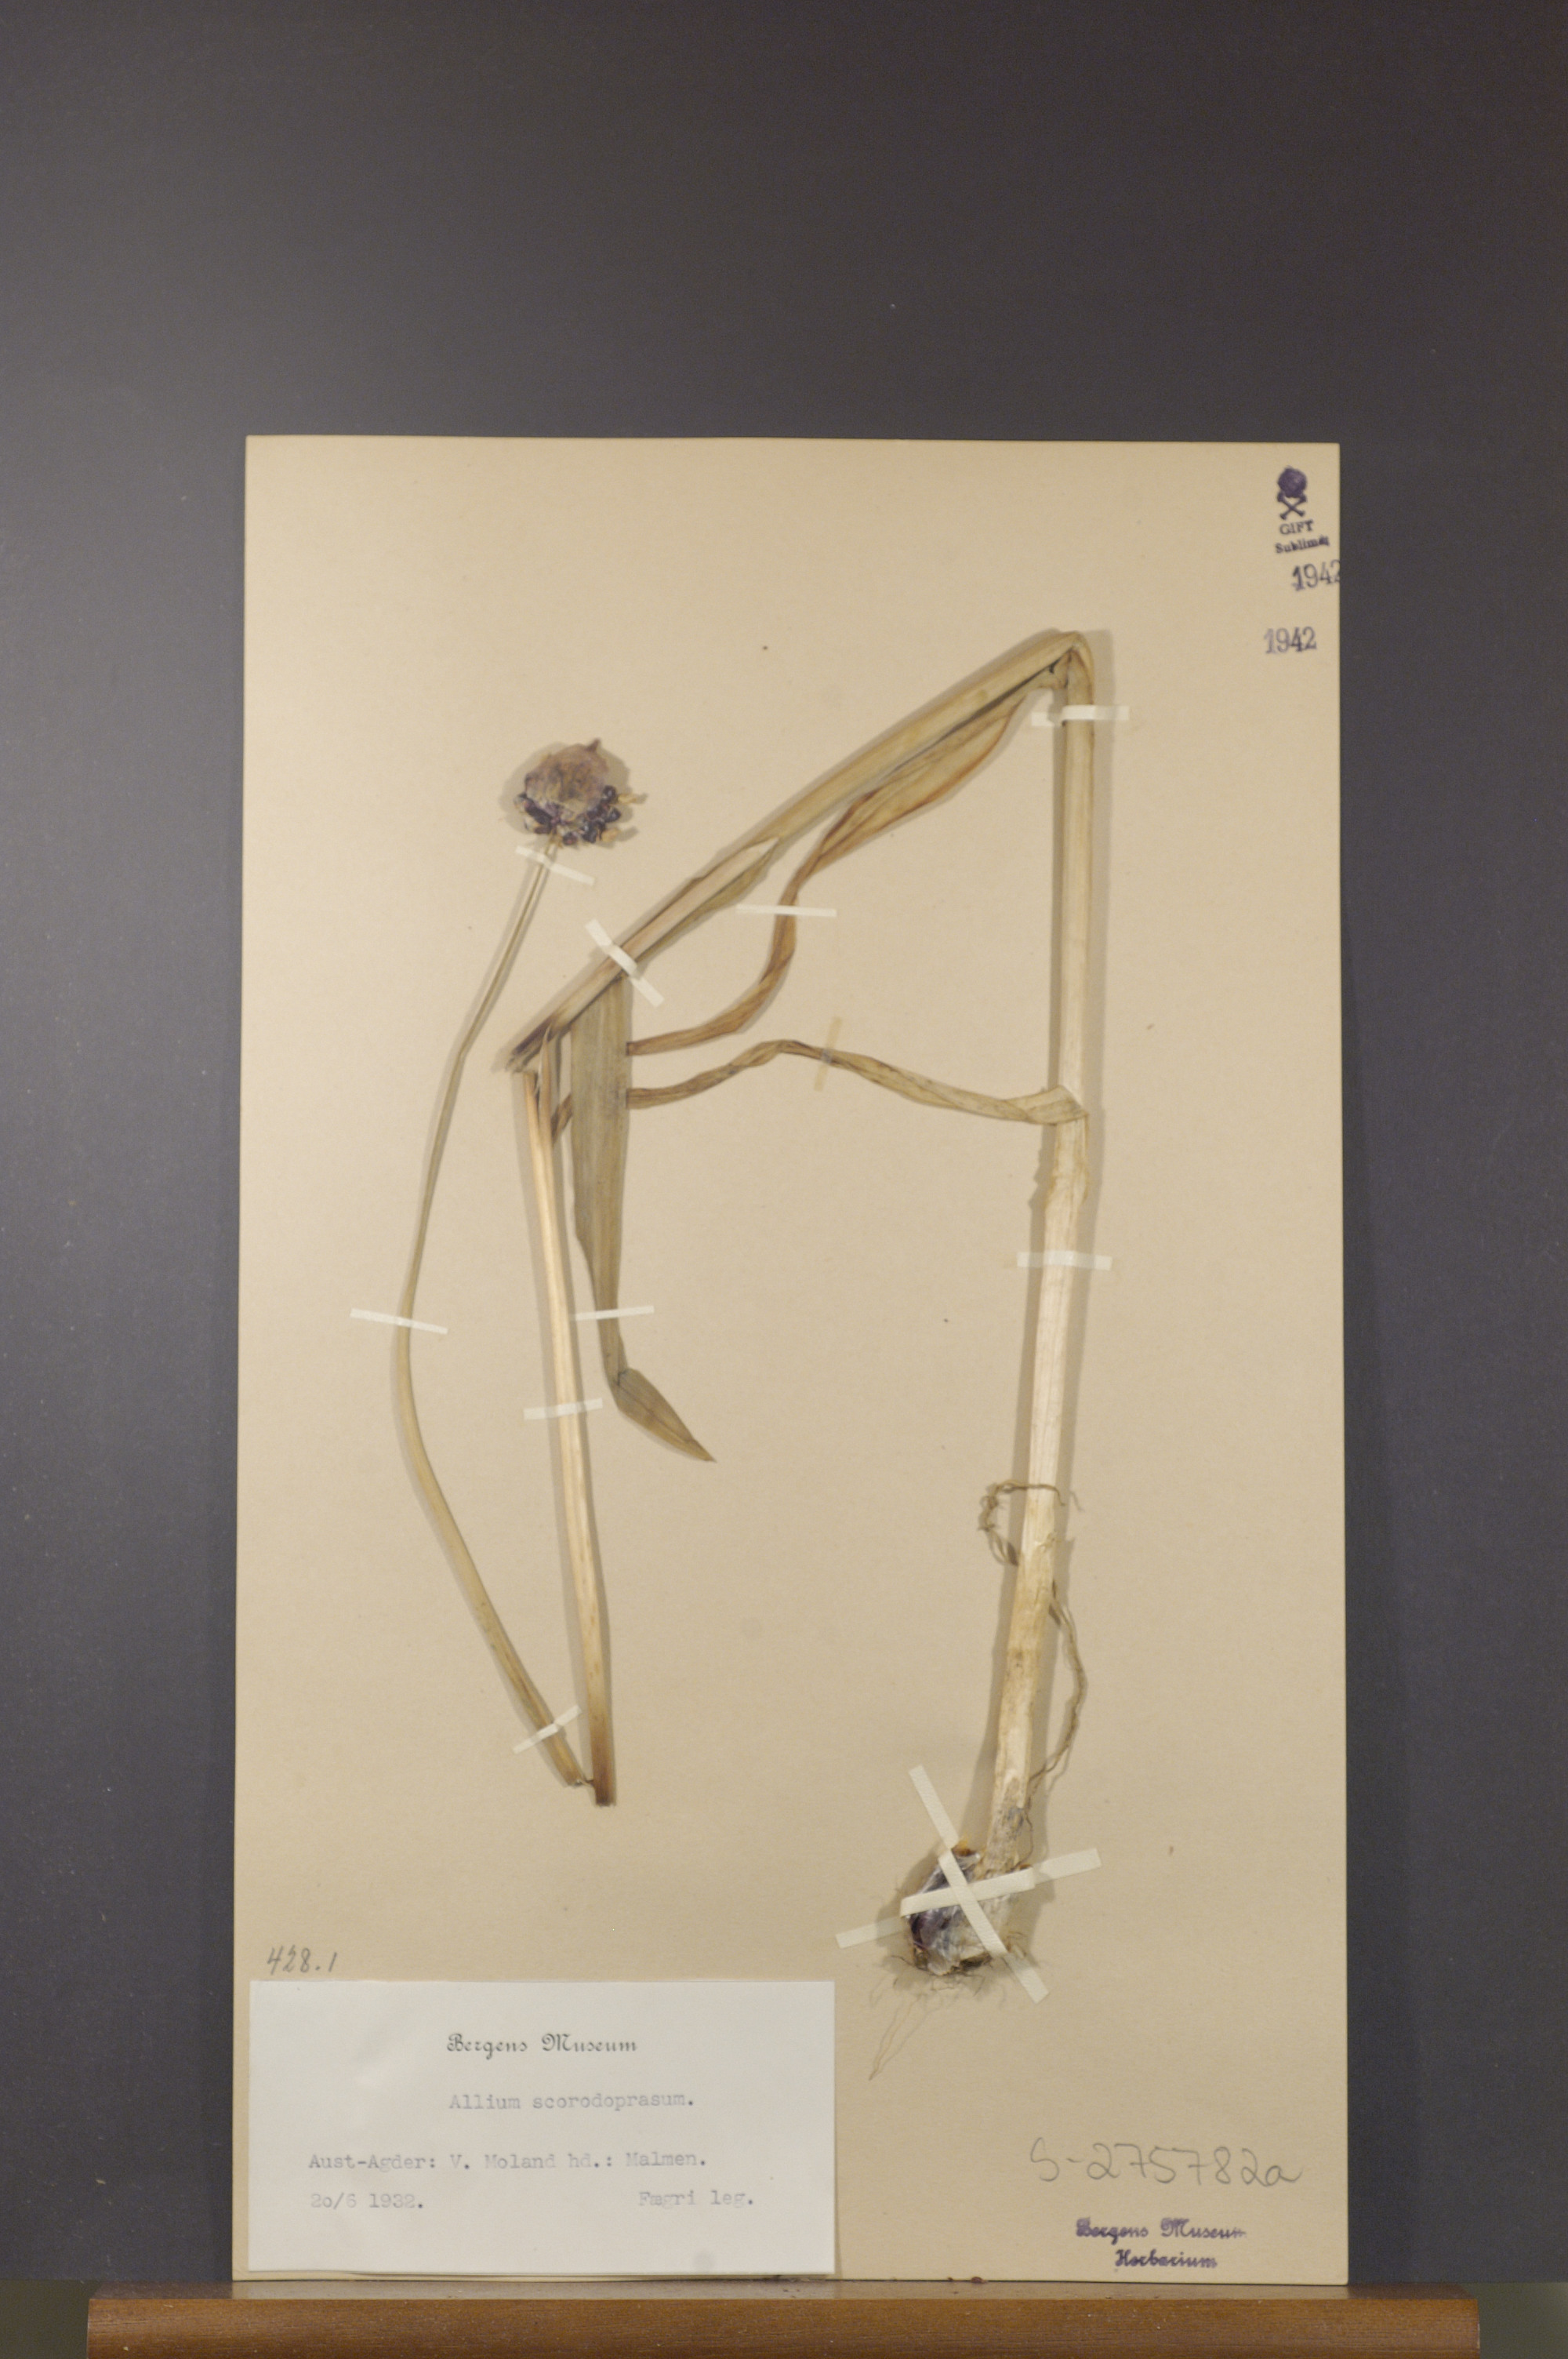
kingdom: Plantae
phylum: Tracheophyta
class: Liliopsida
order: Asparagales
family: Amaryllidaceae
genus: Allium
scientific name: Allium scorodoprasum
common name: Sand leek
